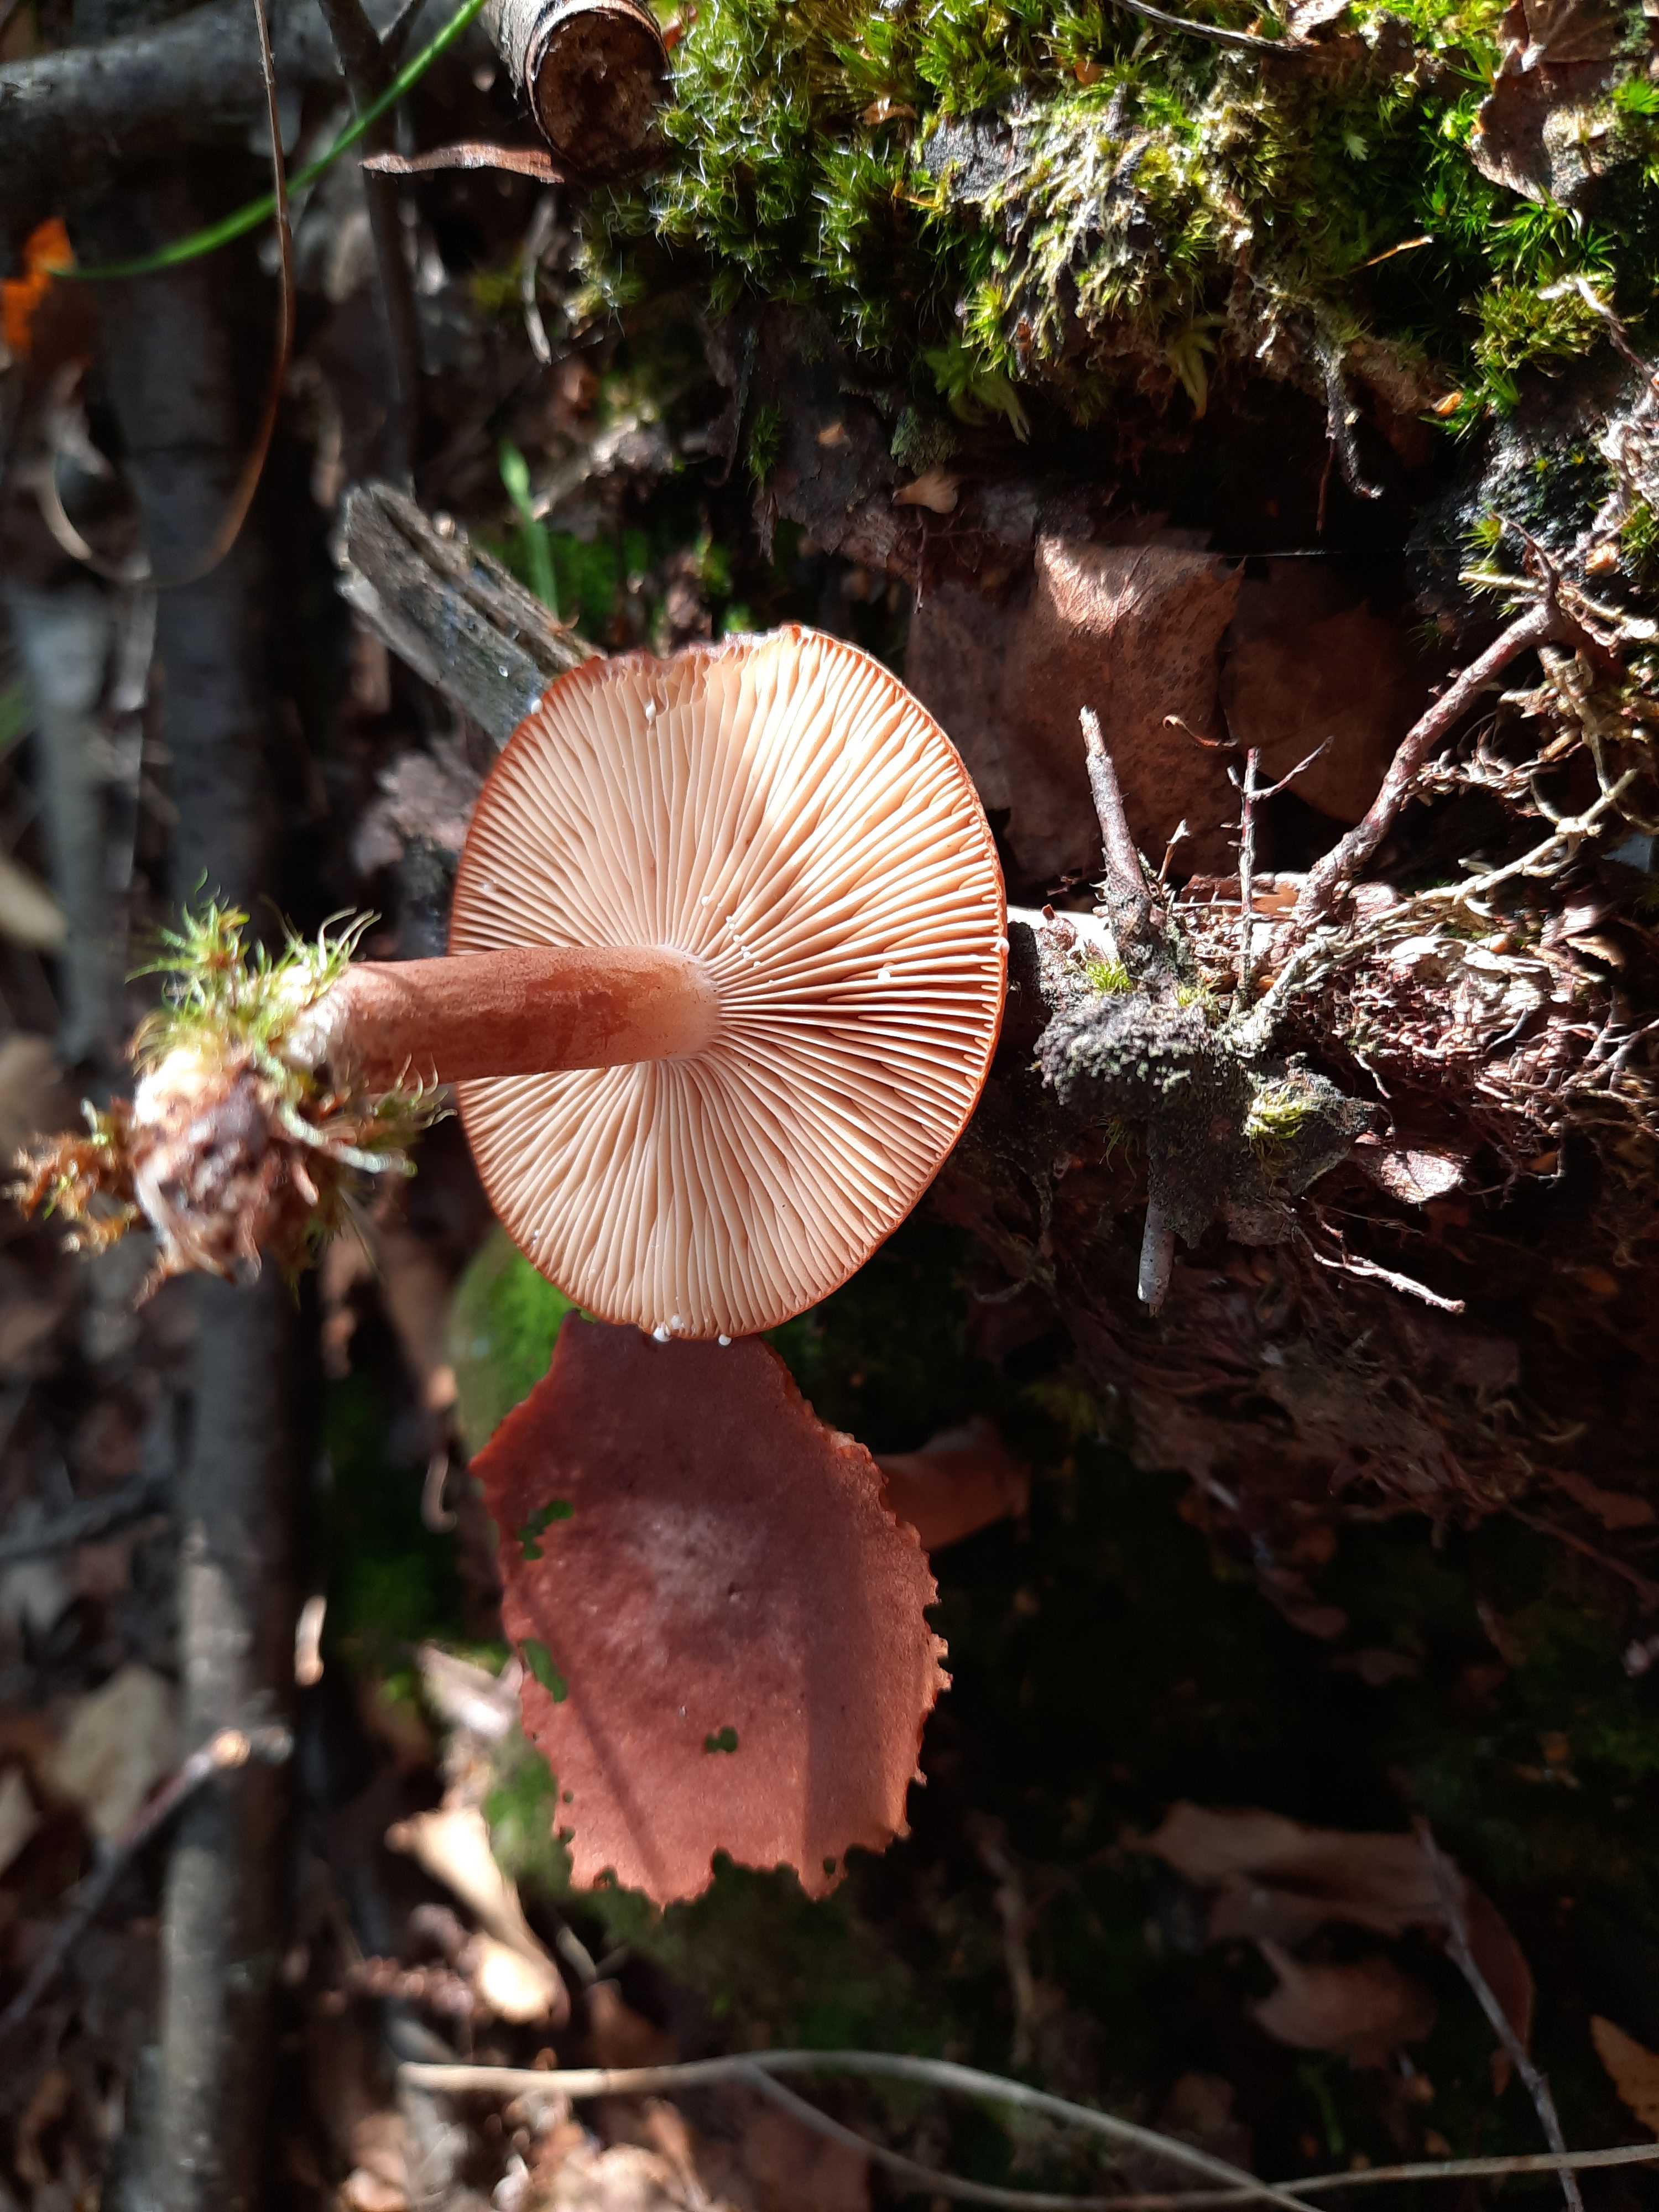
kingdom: Fungi
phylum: Basidiomycota
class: Agaricomycetes
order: Russulales
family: Russulaceae
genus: Lactarius
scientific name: Lactarius rufus
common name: rødbrun mælkehat
